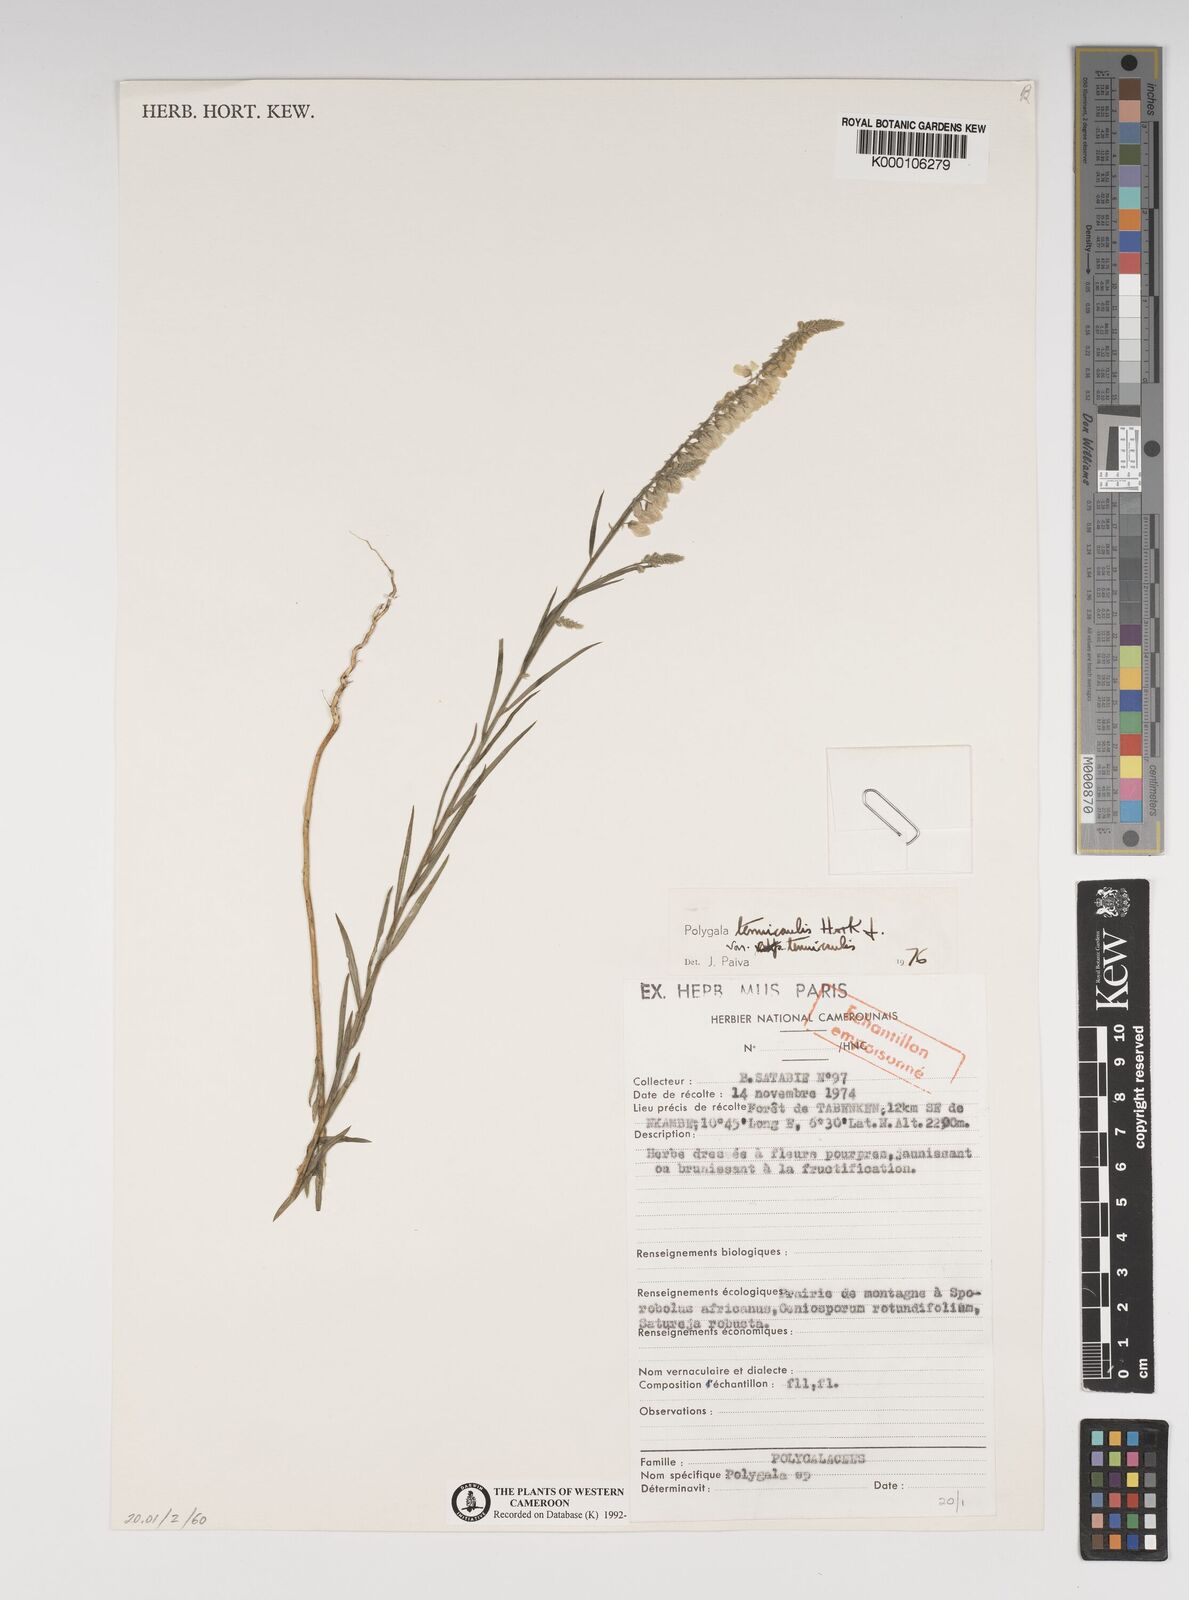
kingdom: Plantae
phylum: Tracheophyta
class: Magnoliopsida
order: Fabales
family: Polygalaceae
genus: Polygala
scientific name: Polygala tenuicaulis
